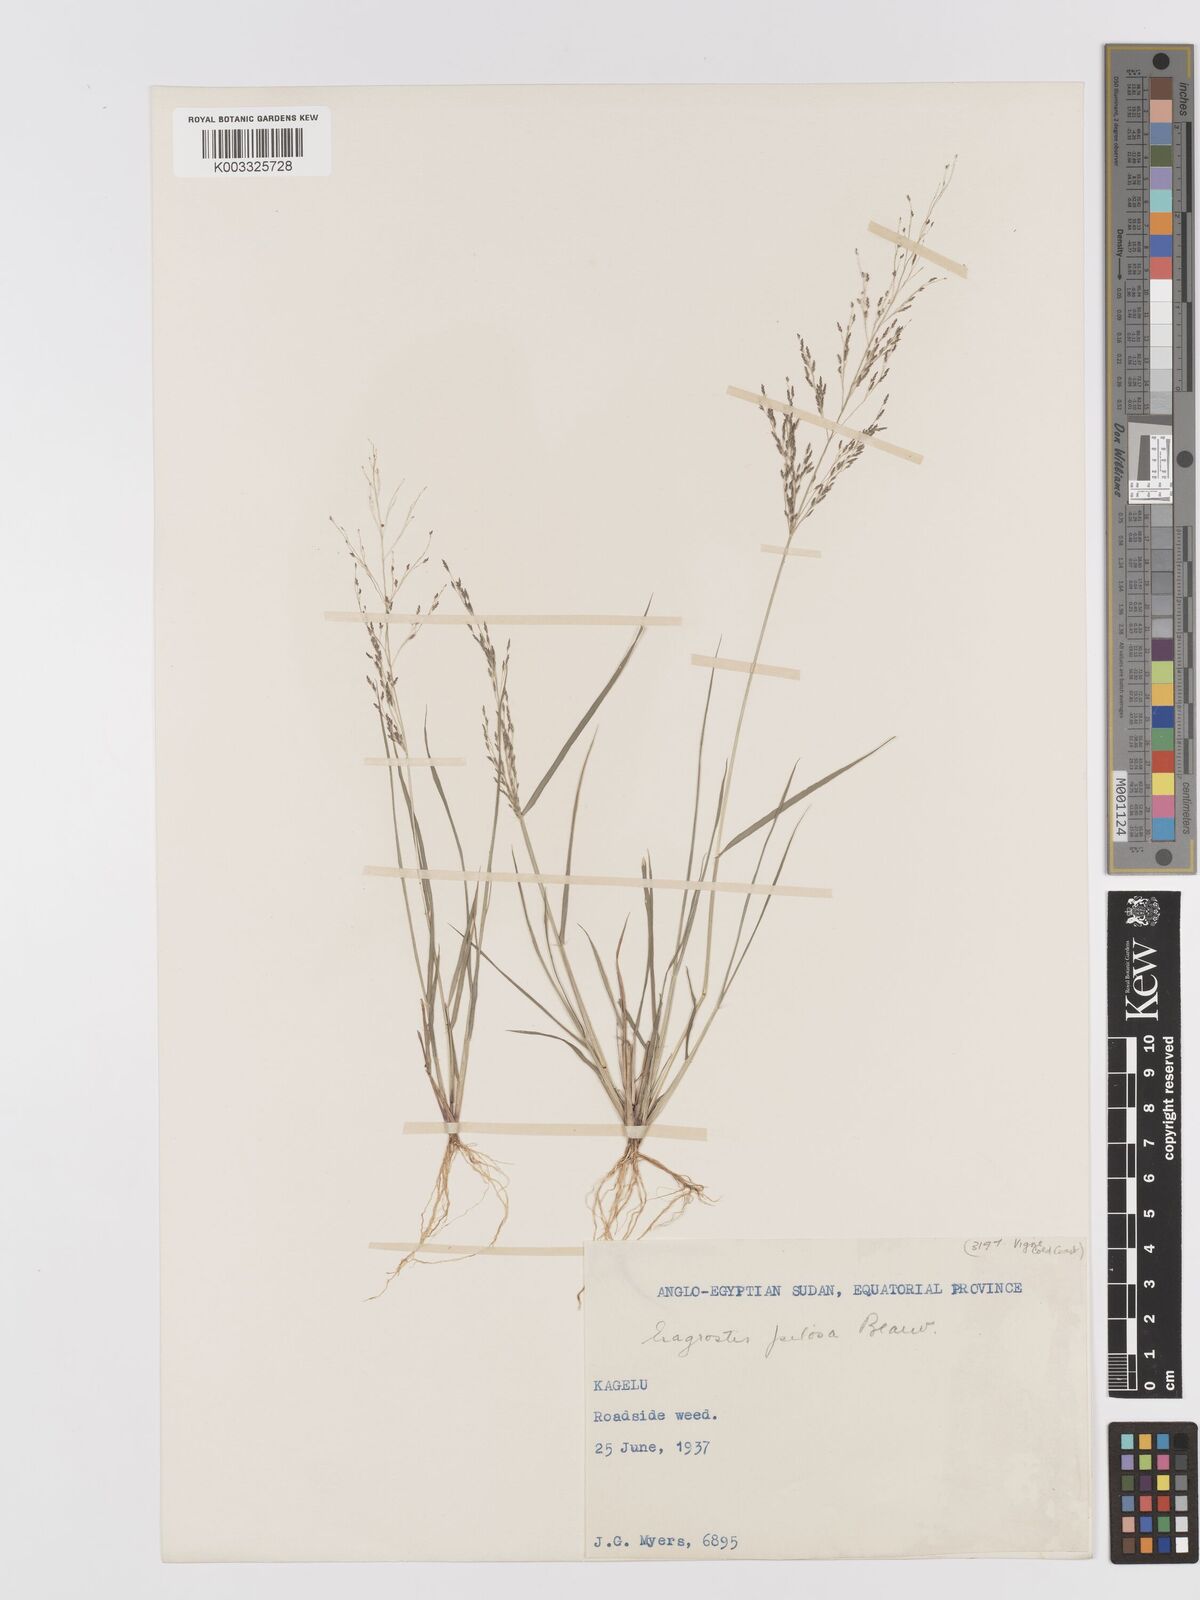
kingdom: Plantae
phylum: Tracheophyta
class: Liliopsida
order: Poales
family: Poaceae
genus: Eragrostis
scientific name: Eragrostis pilosa
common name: Indian lovegrass
